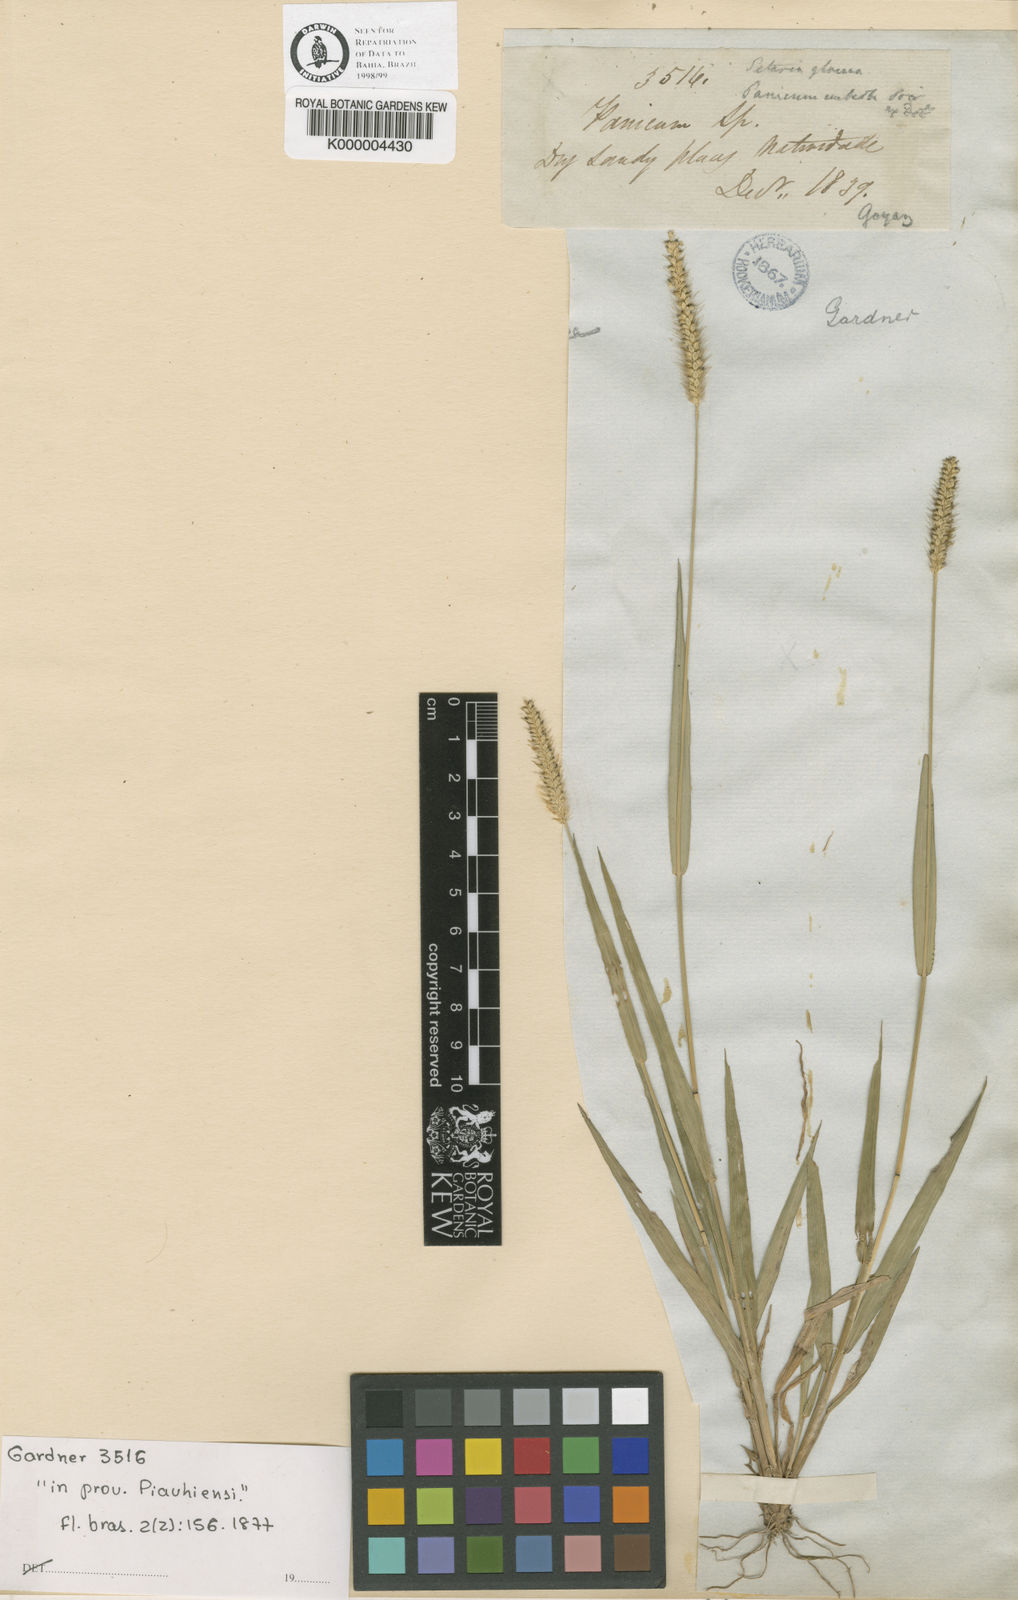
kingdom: Plantae
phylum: Tracheophyta
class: Liliopsida
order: Poales
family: Poaceae
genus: Setaria
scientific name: Setaria
